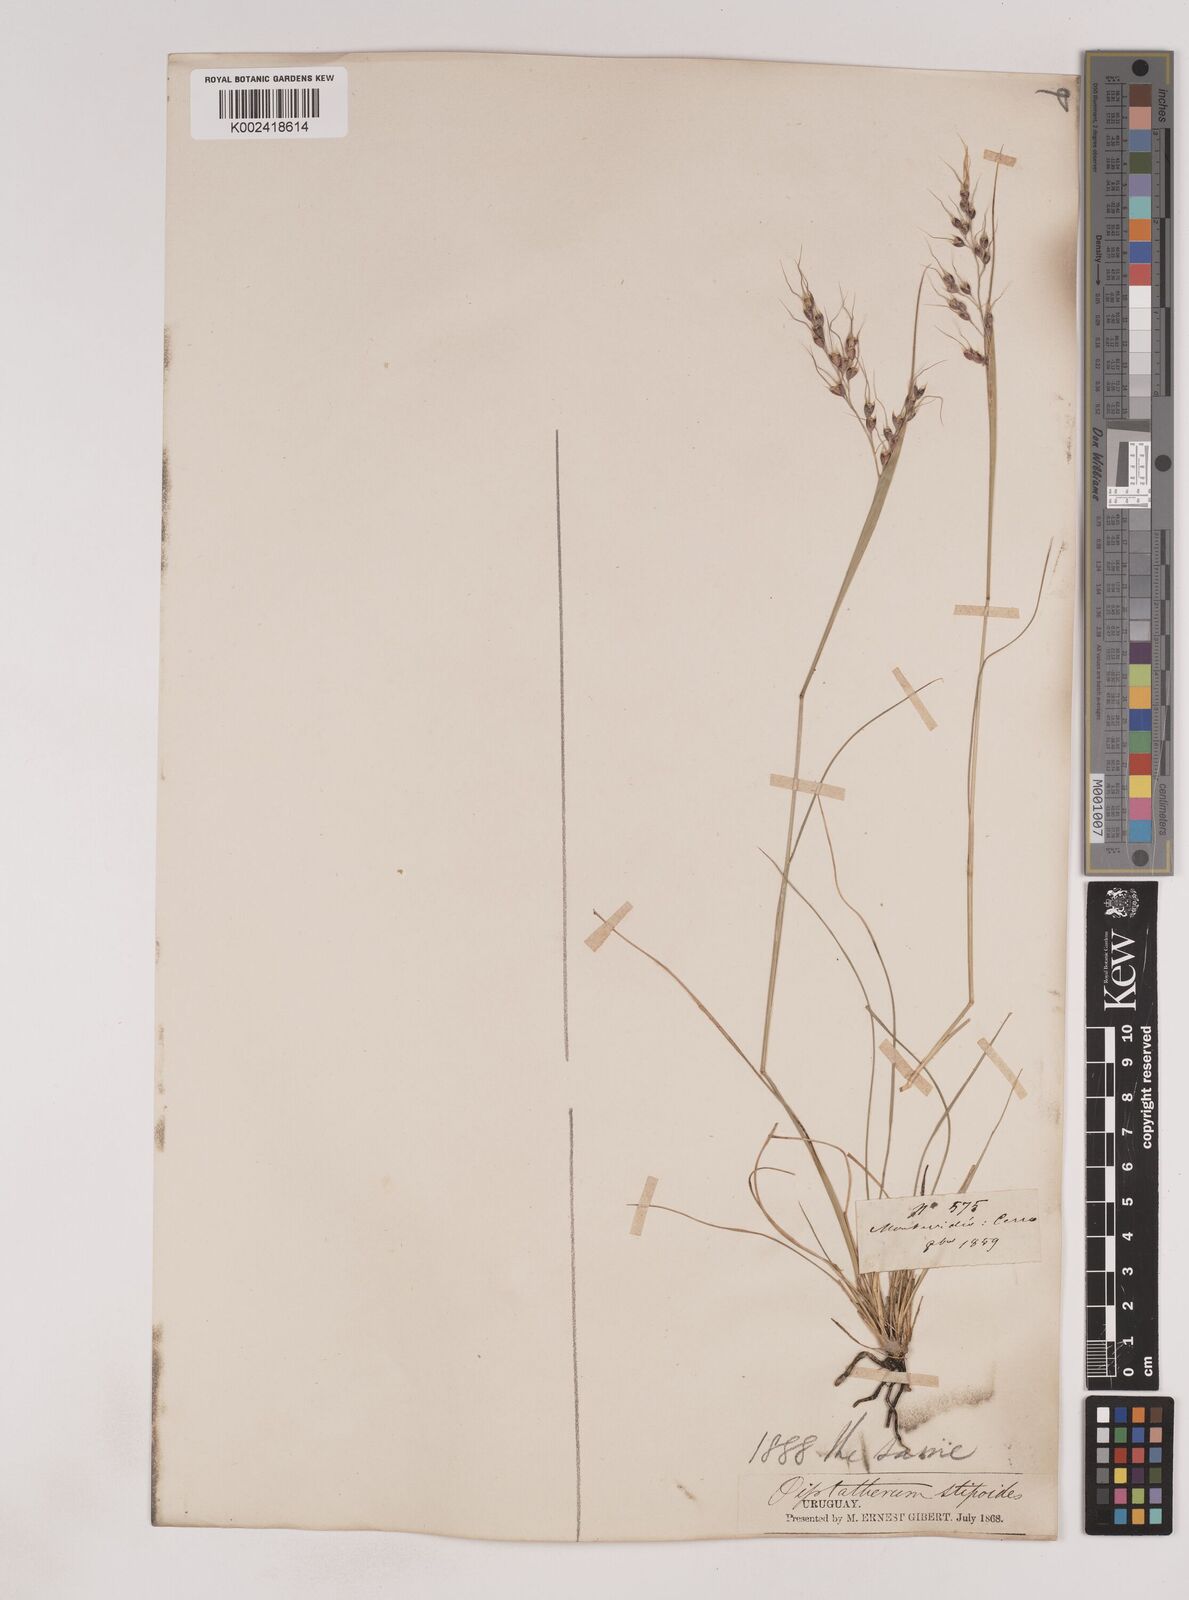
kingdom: Plantae
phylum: Tracheophyta
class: Liliopsida
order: Poales
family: Poaceae
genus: Piptochaetium
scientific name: Piptochaetium
